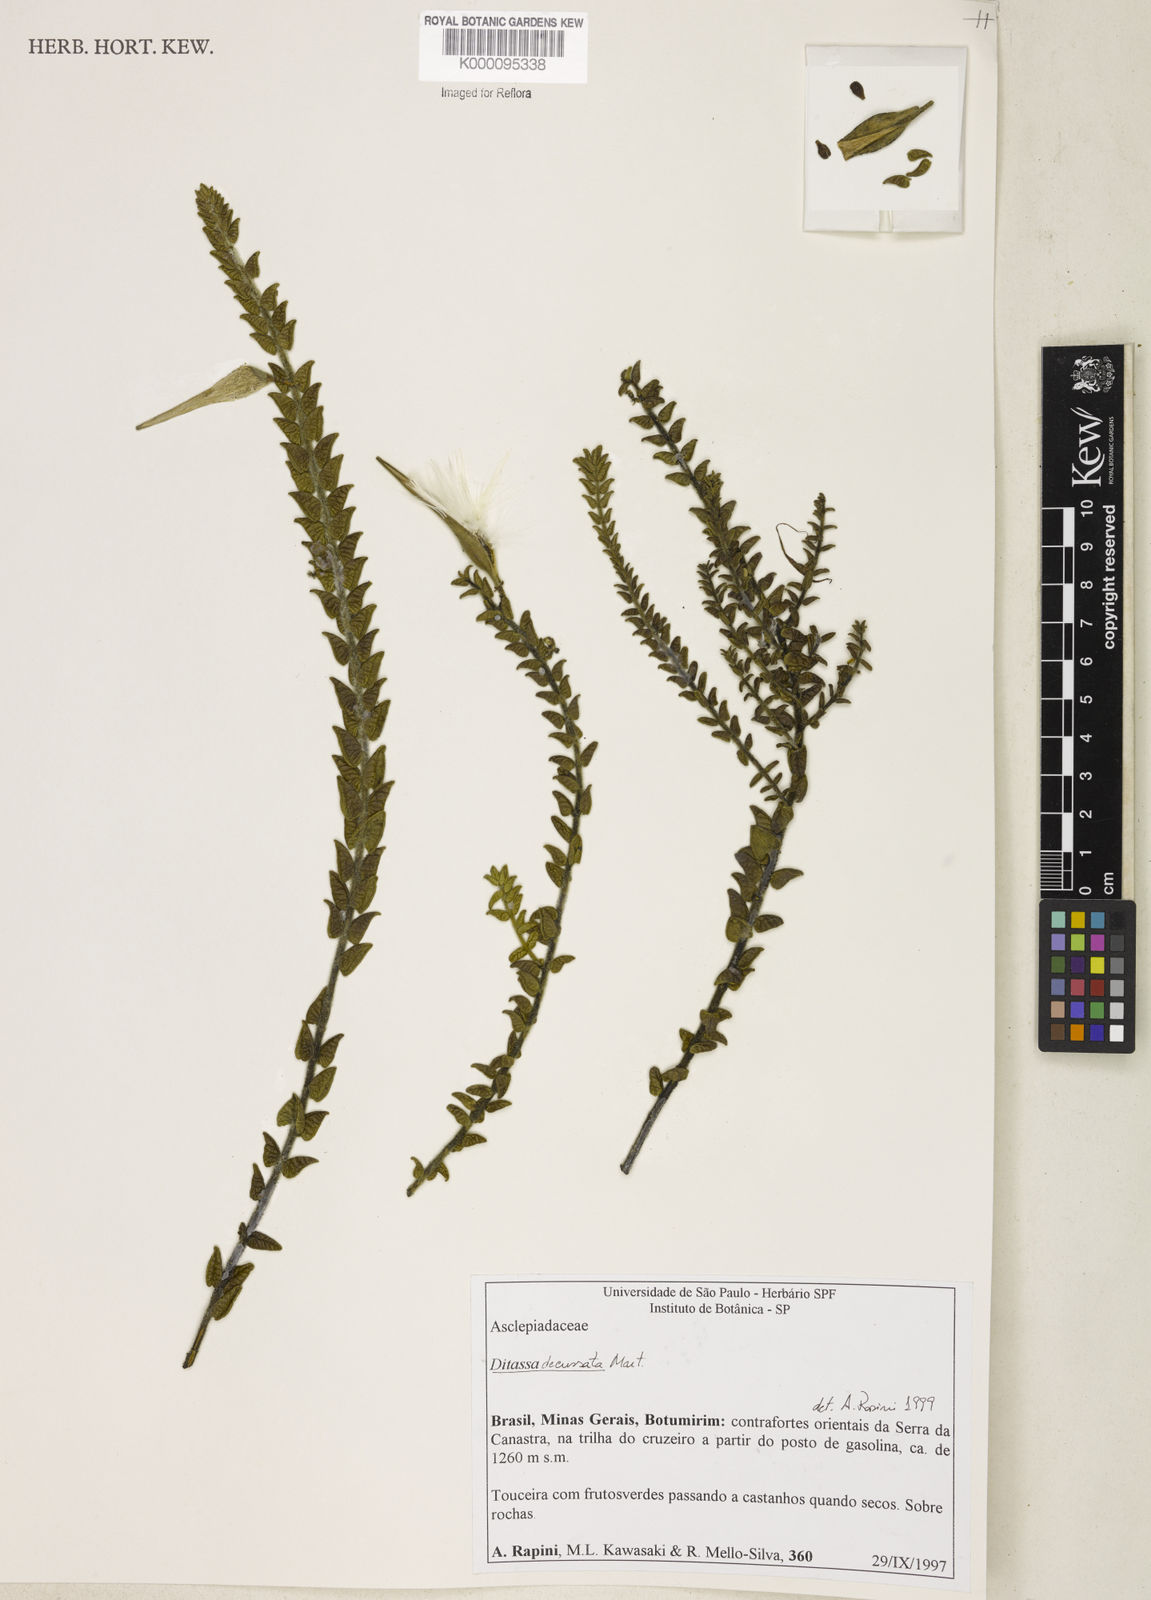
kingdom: Plantae
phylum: Tracheophyta
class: Magnoliopsida
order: Gentianales
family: Apocynaceae
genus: Minaria
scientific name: Minaria decussata
